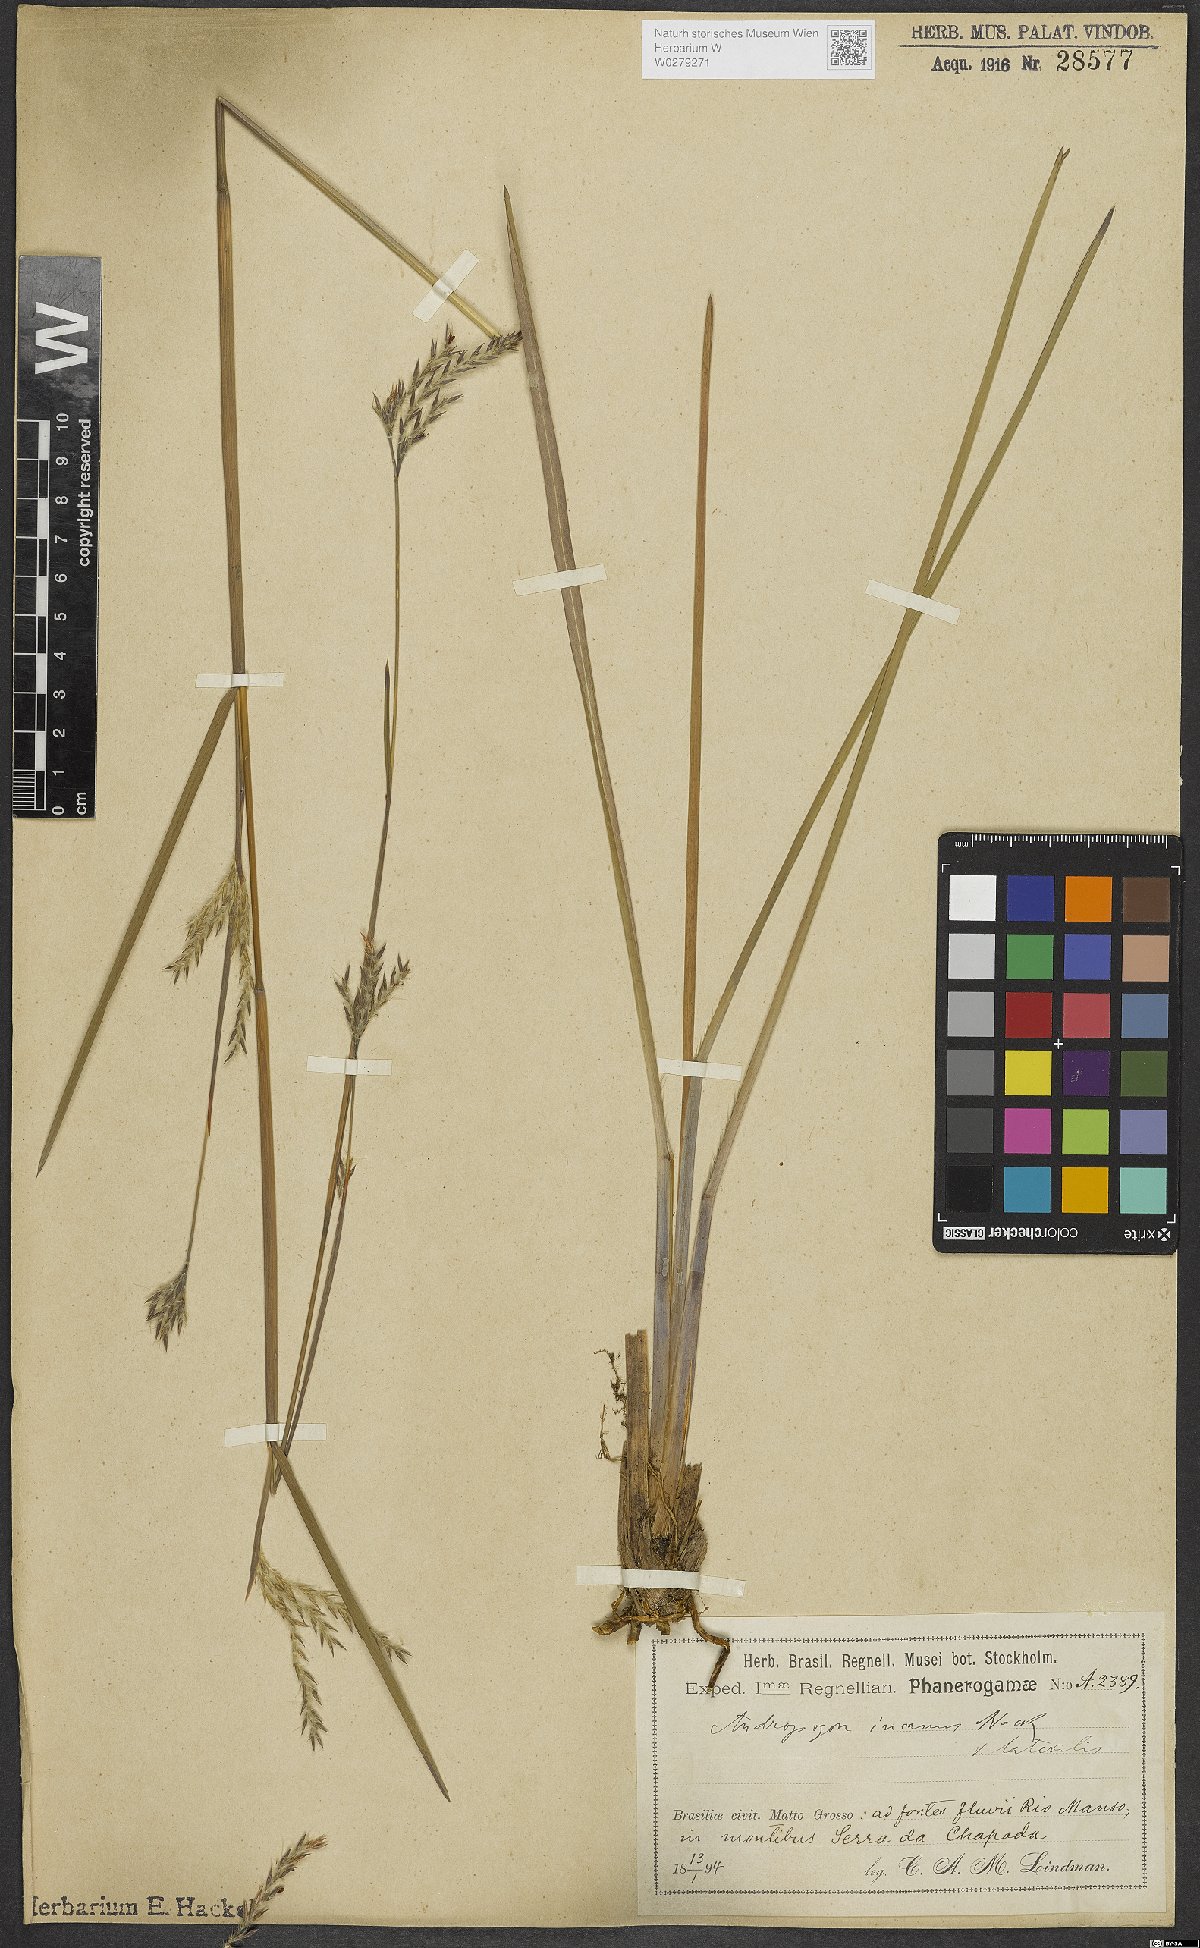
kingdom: Plantae
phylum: Tracheophyta
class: Liliopsida
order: Poales
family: Poaceae
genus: Andropogon
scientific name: Andropogon lateralis
